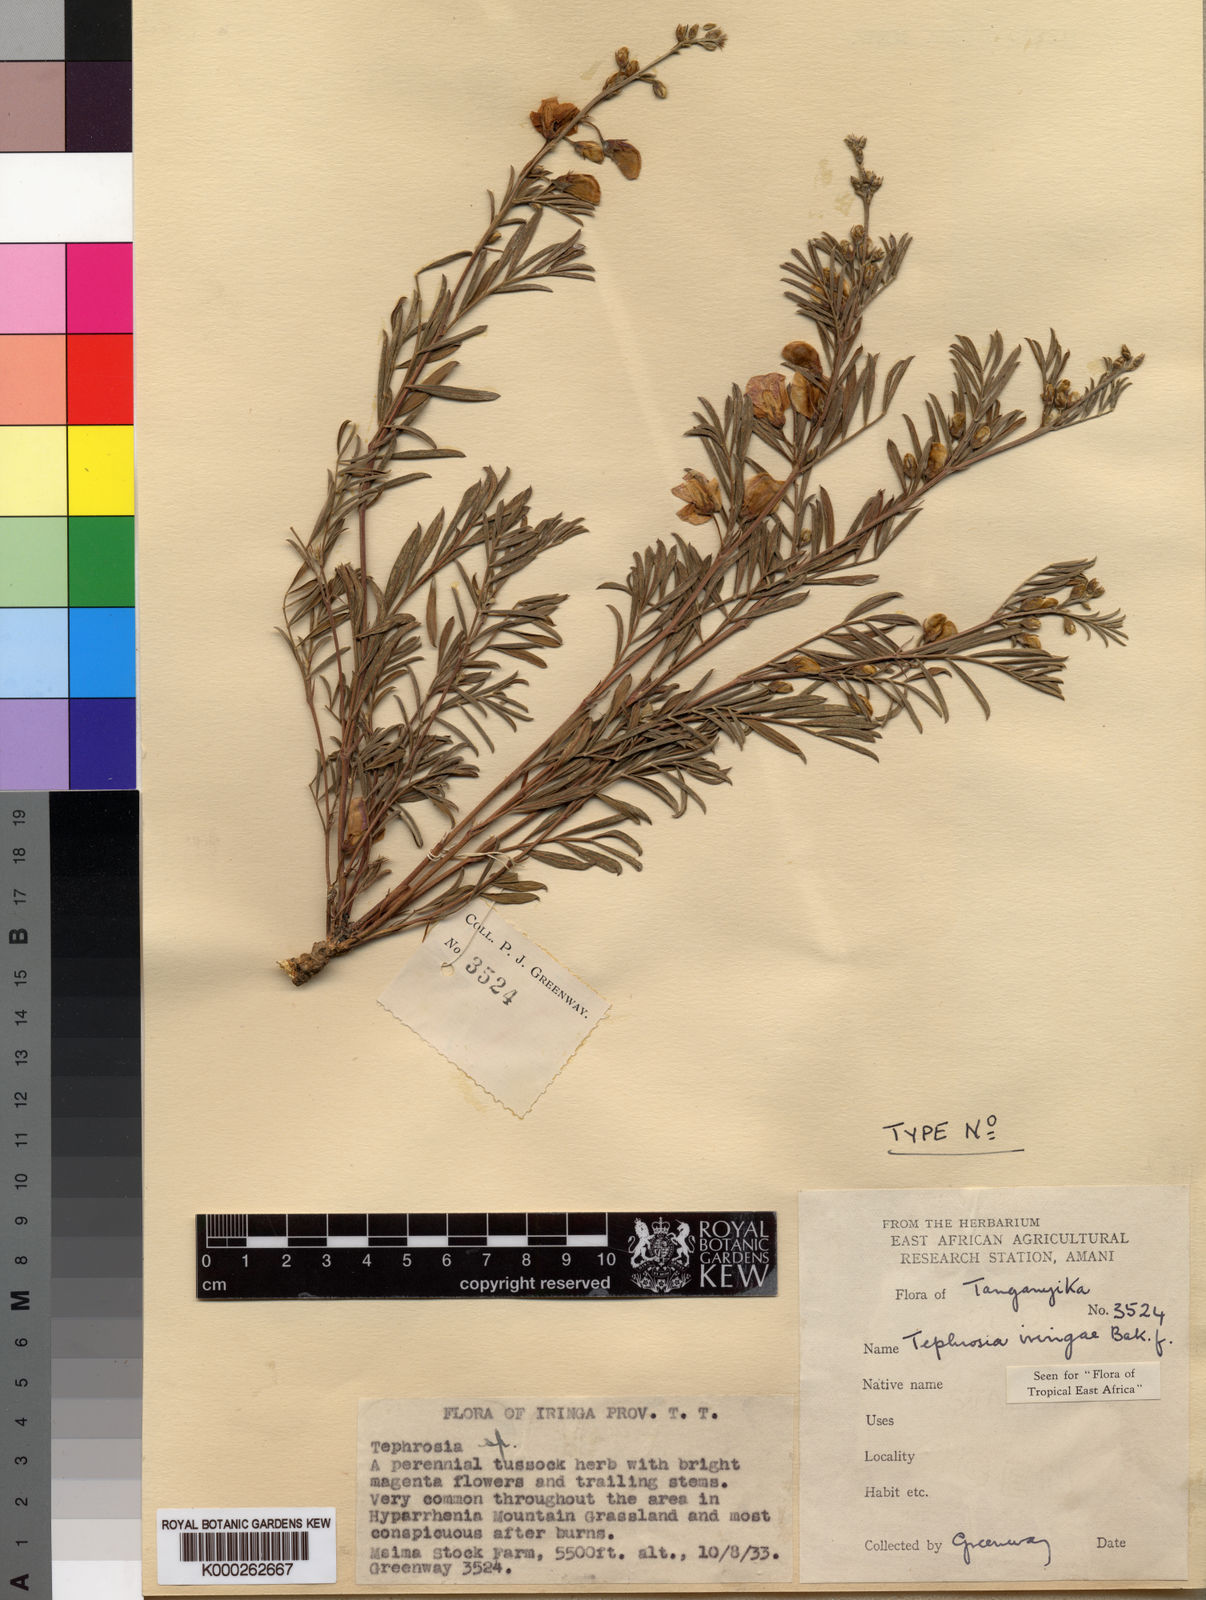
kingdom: Plantae
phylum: Tracheophyta
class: Magnoliopsida
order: Fabales
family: Fabaceae
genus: Tephrosia
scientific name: Tephrosia iringae
